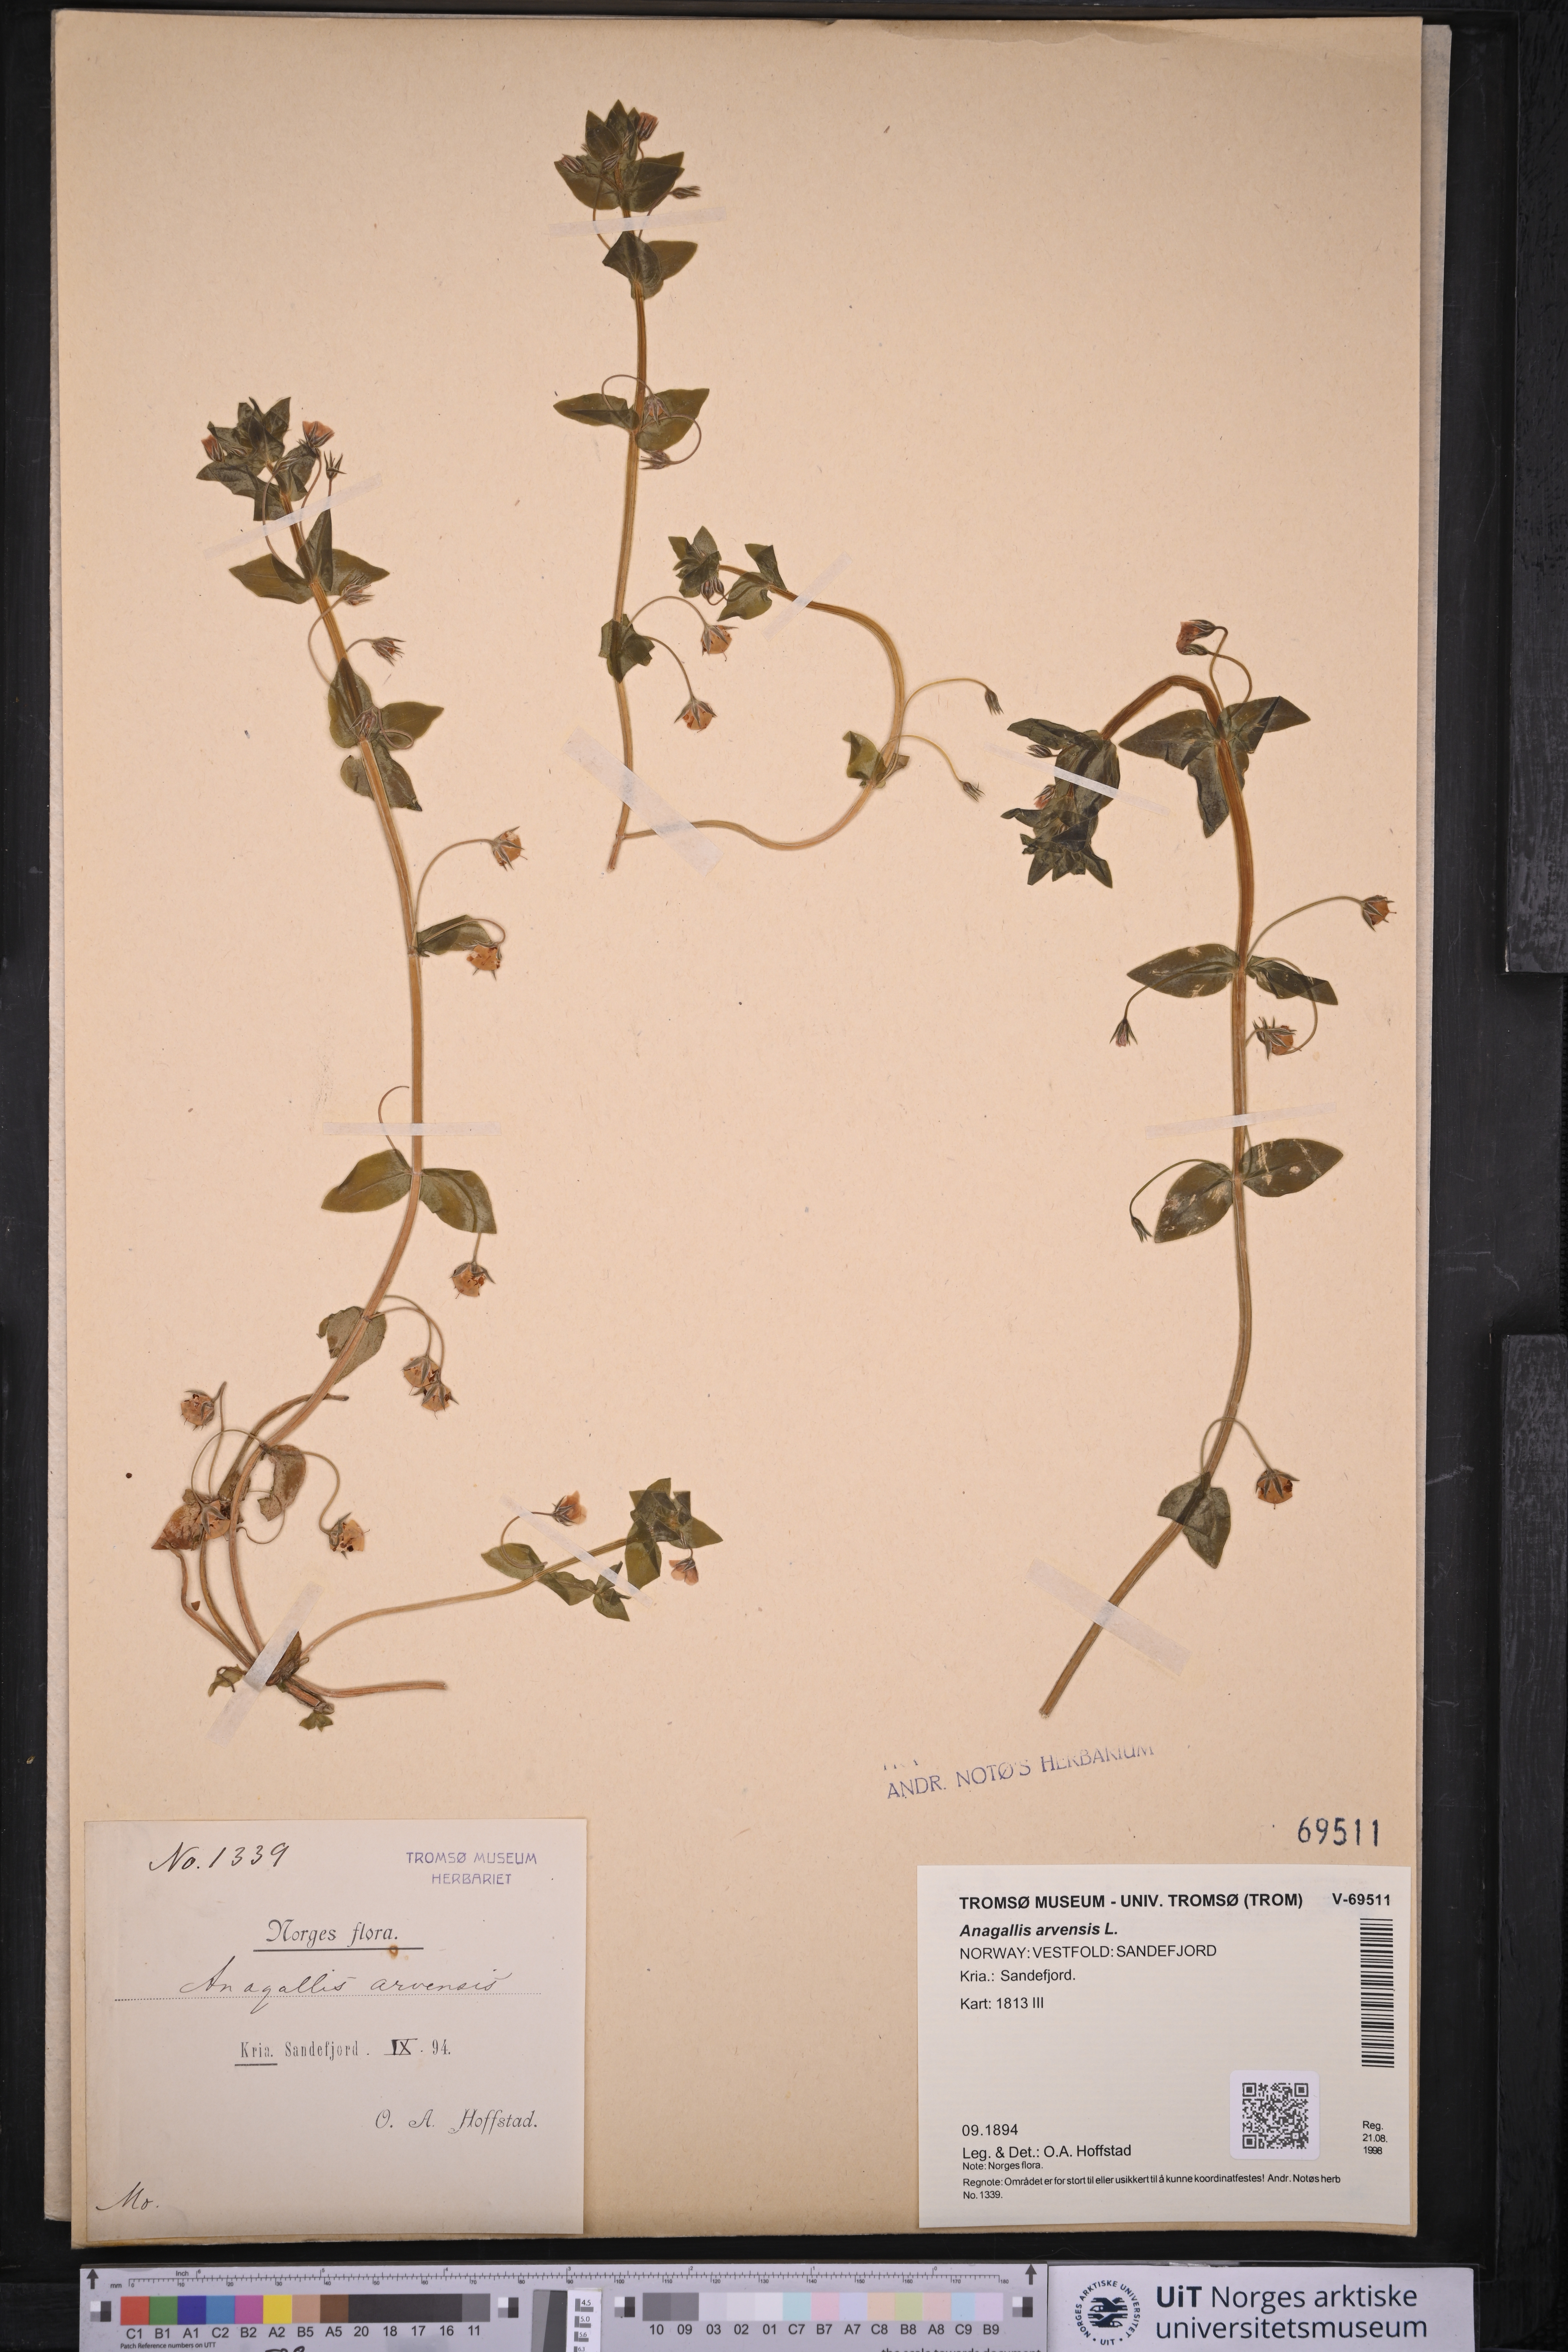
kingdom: Plantae
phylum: Tracheophyta
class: Magnoliopsida
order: Ericales
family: Primulaceae
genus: Lysimachia
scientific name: Lysimachia arvensis
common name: Scarlet pimpernel
